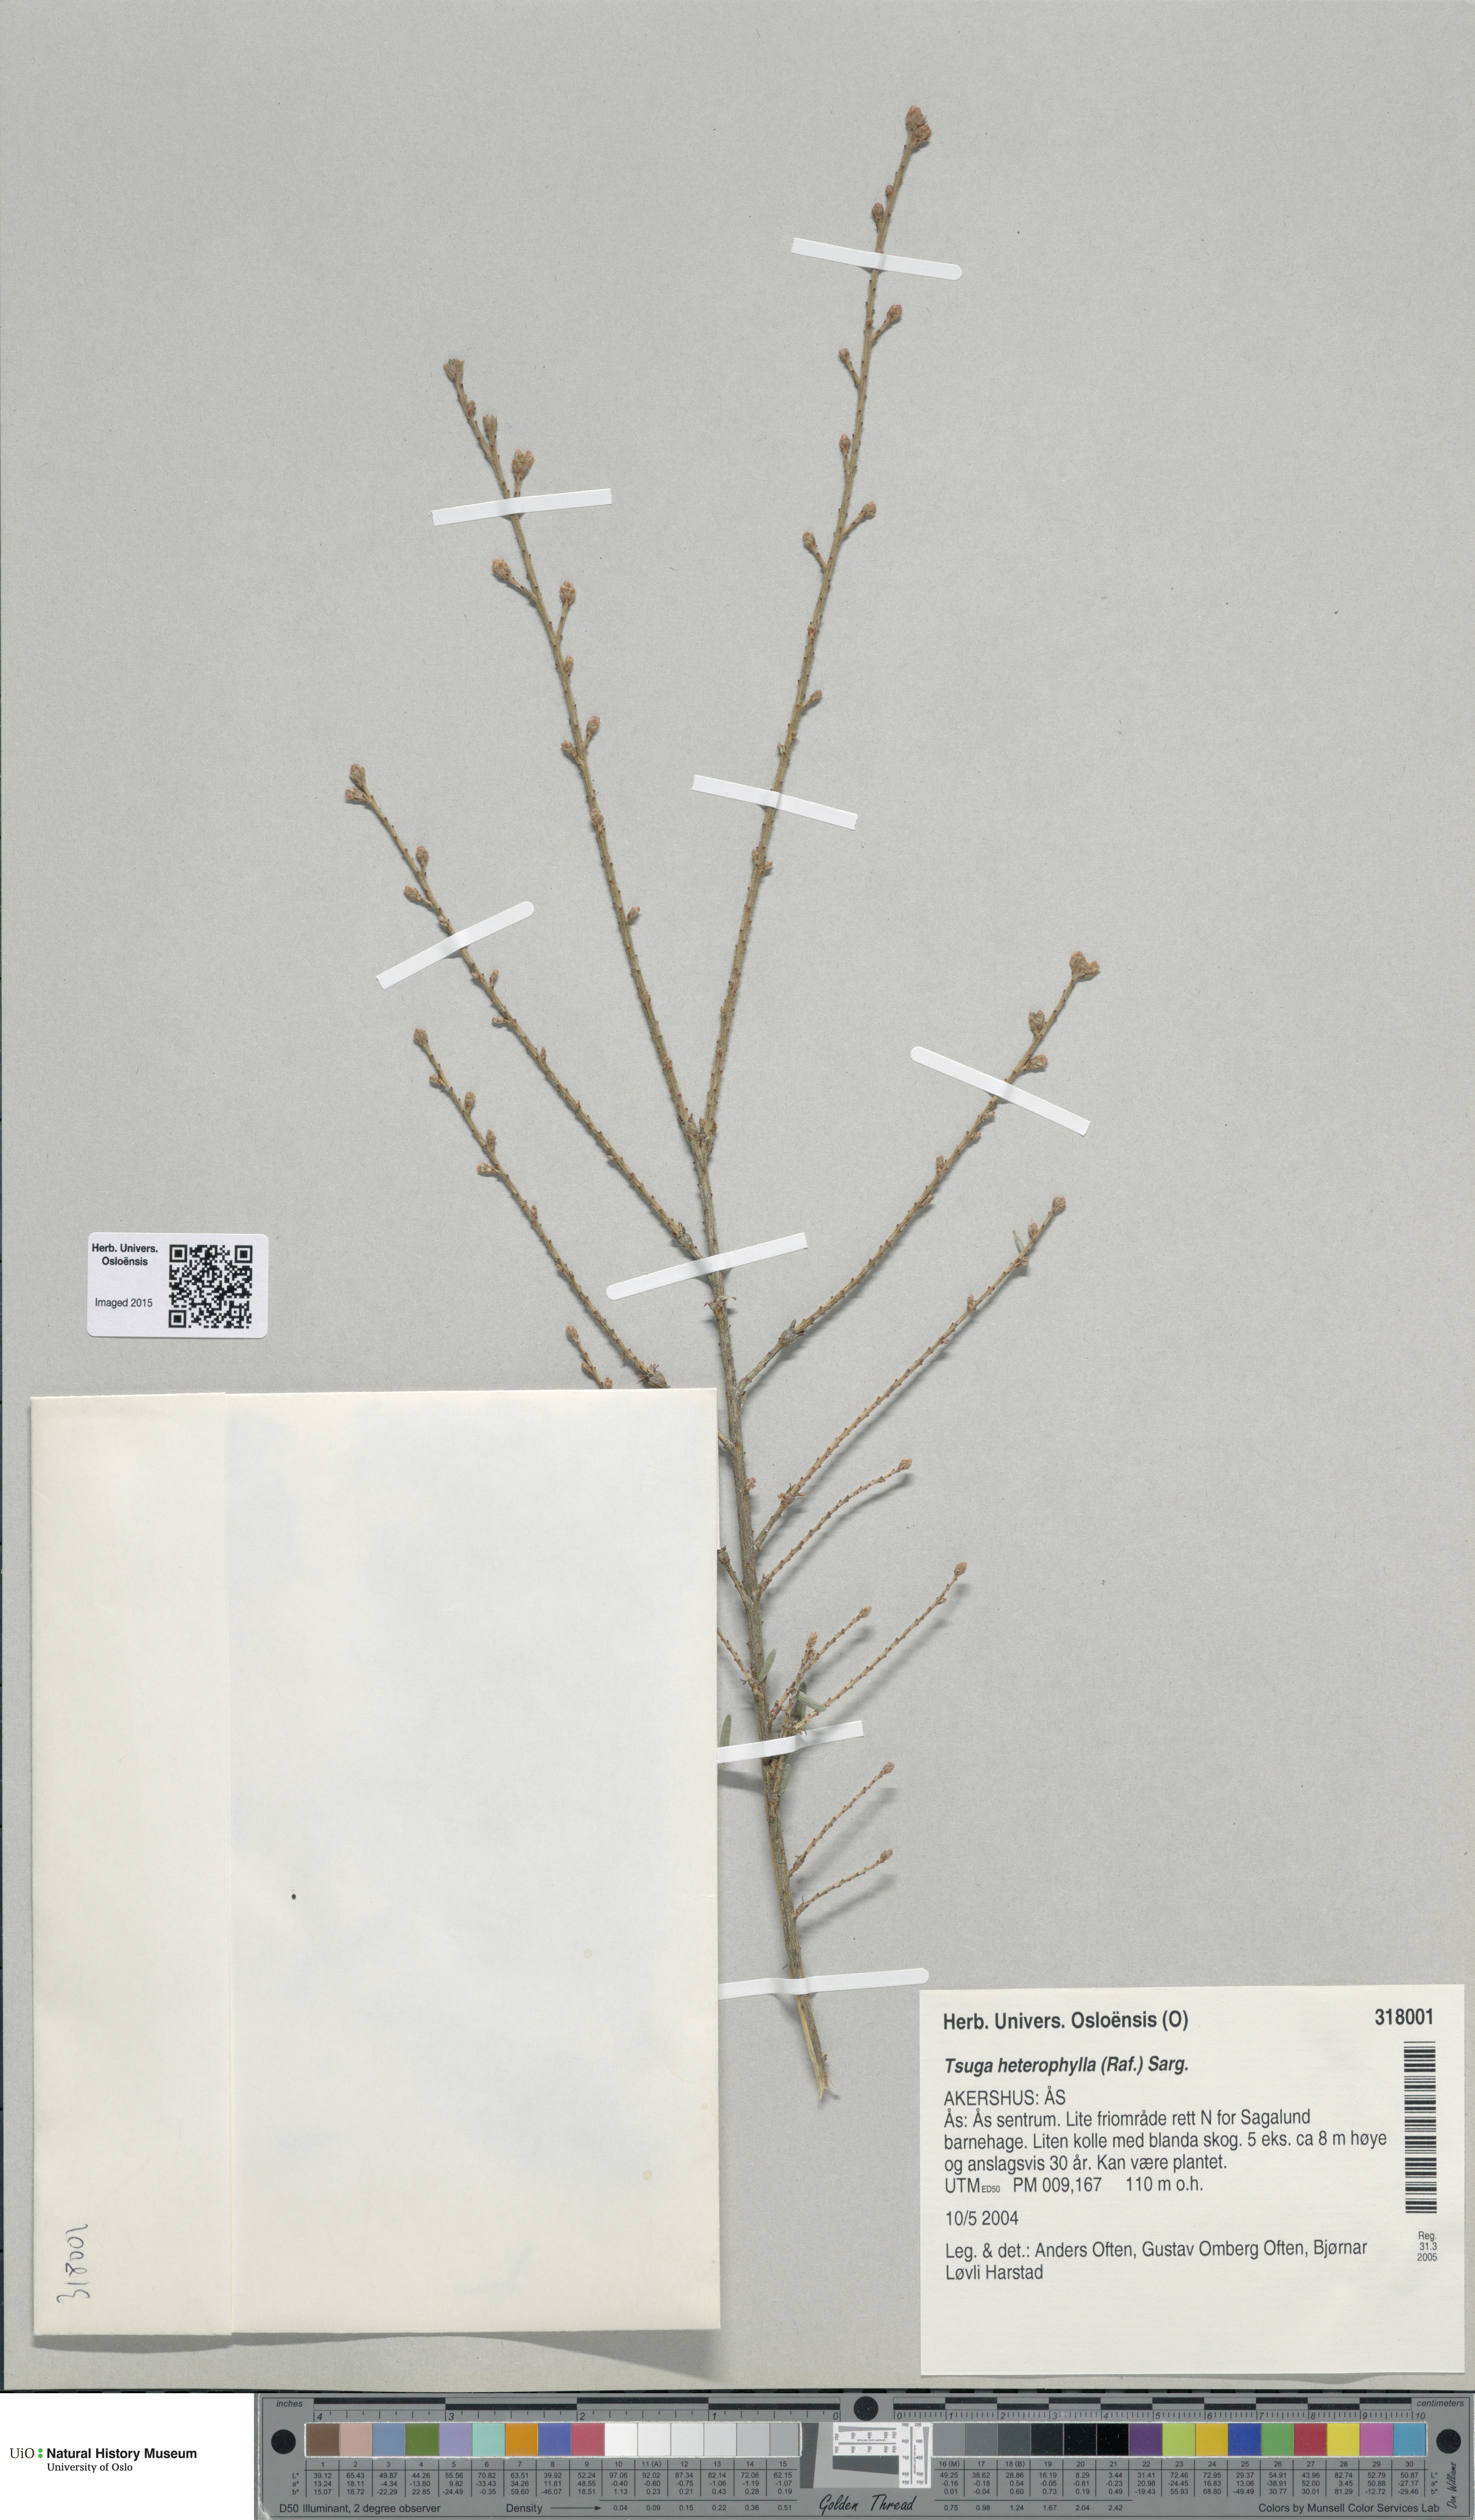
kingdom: Plantae
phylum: Tracheophyta
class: Pinopsida
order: Pinales
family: Pinaceae
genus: Tsuga
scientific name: Tsuga heterophylla
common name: Western hemlock
